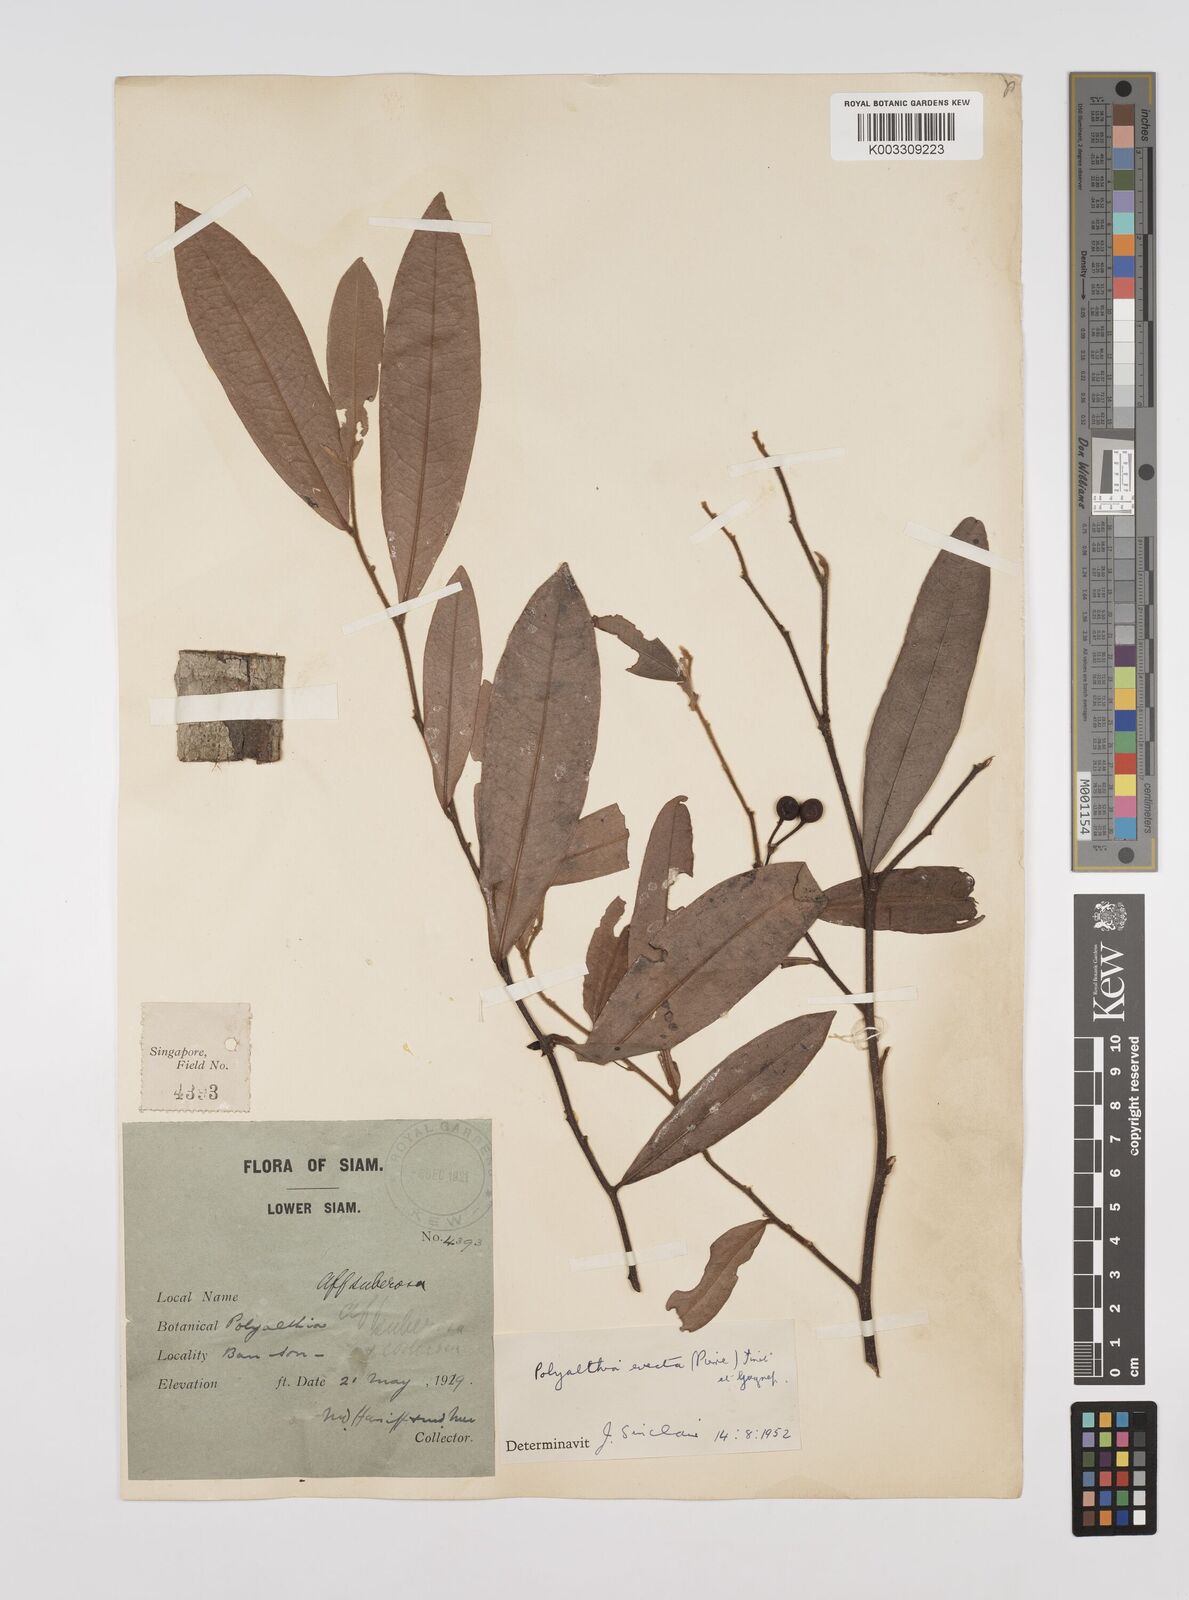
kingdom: Plantae
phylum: Tracheophyta
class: Magnoliopsida
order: Magnoliales
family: Annonaceae
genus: Polyalthia
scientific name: Polyalthia evecta
